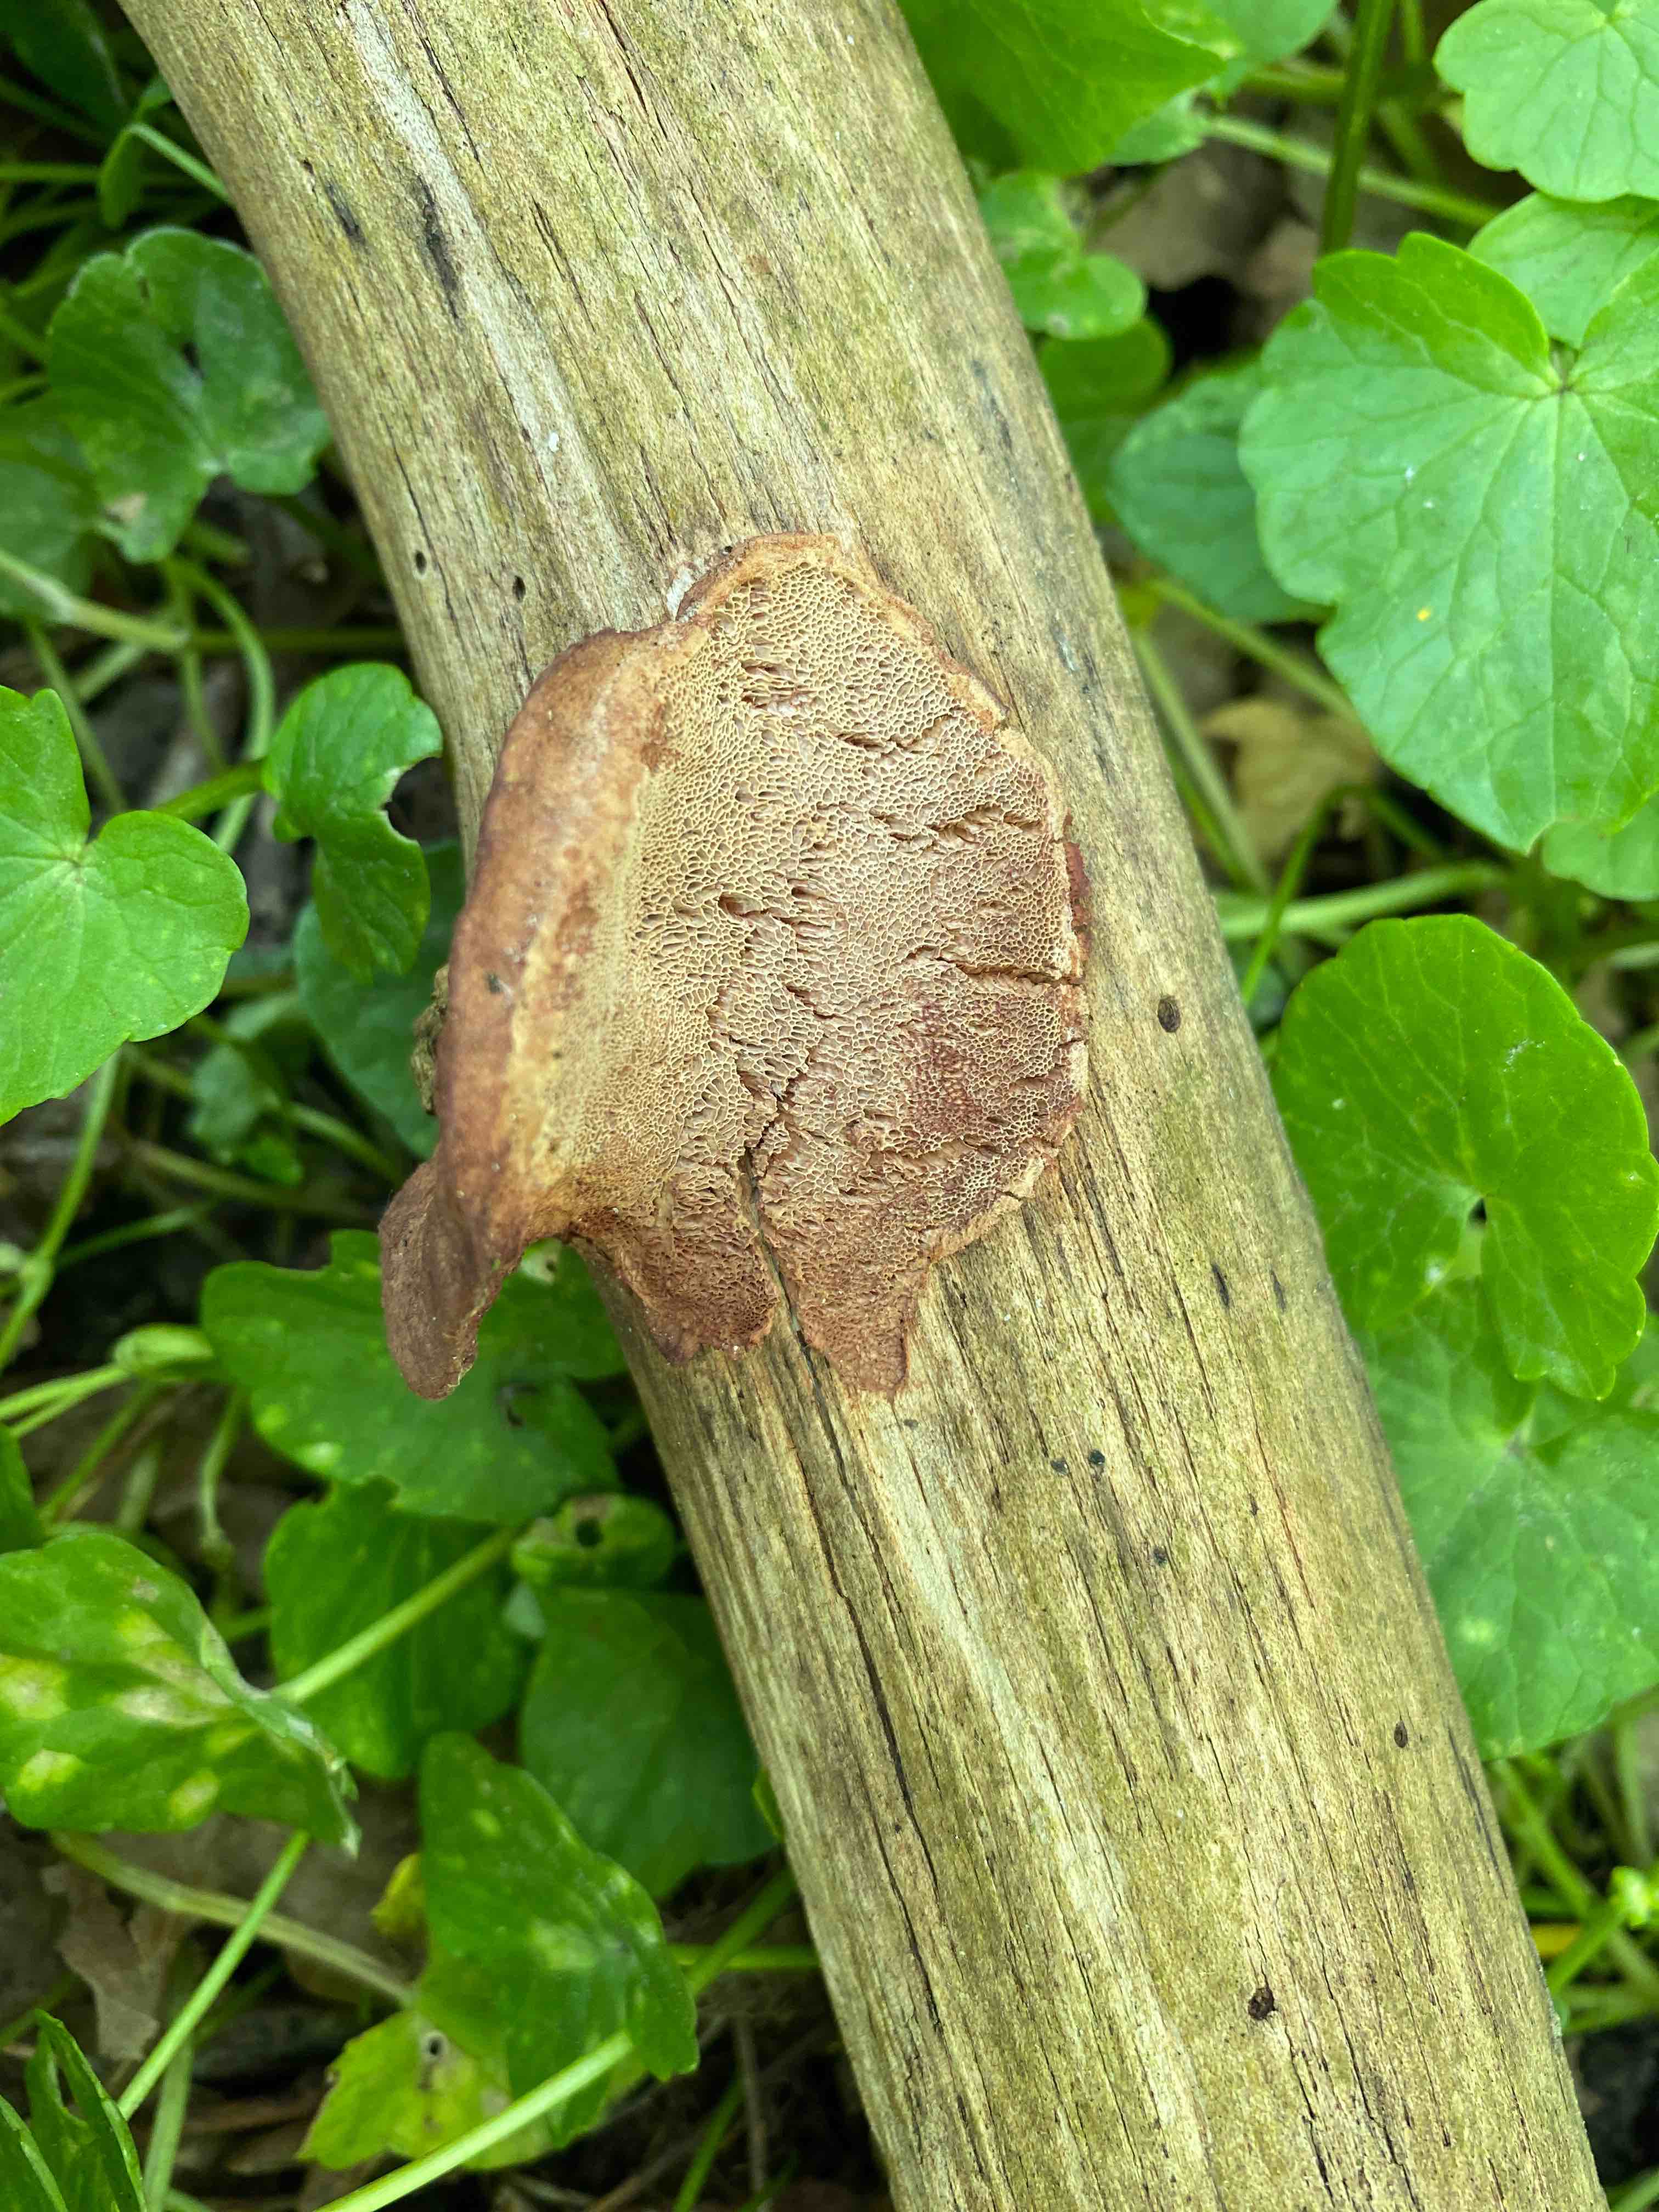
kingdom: Fungi
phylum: Basidiomycota
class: Agaricomycetes
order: Polyporales
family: Phanerochaetaceae
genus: Hapalopilus
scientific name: Hapalopilus rutilans
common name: rødlig okkerporesvamp
